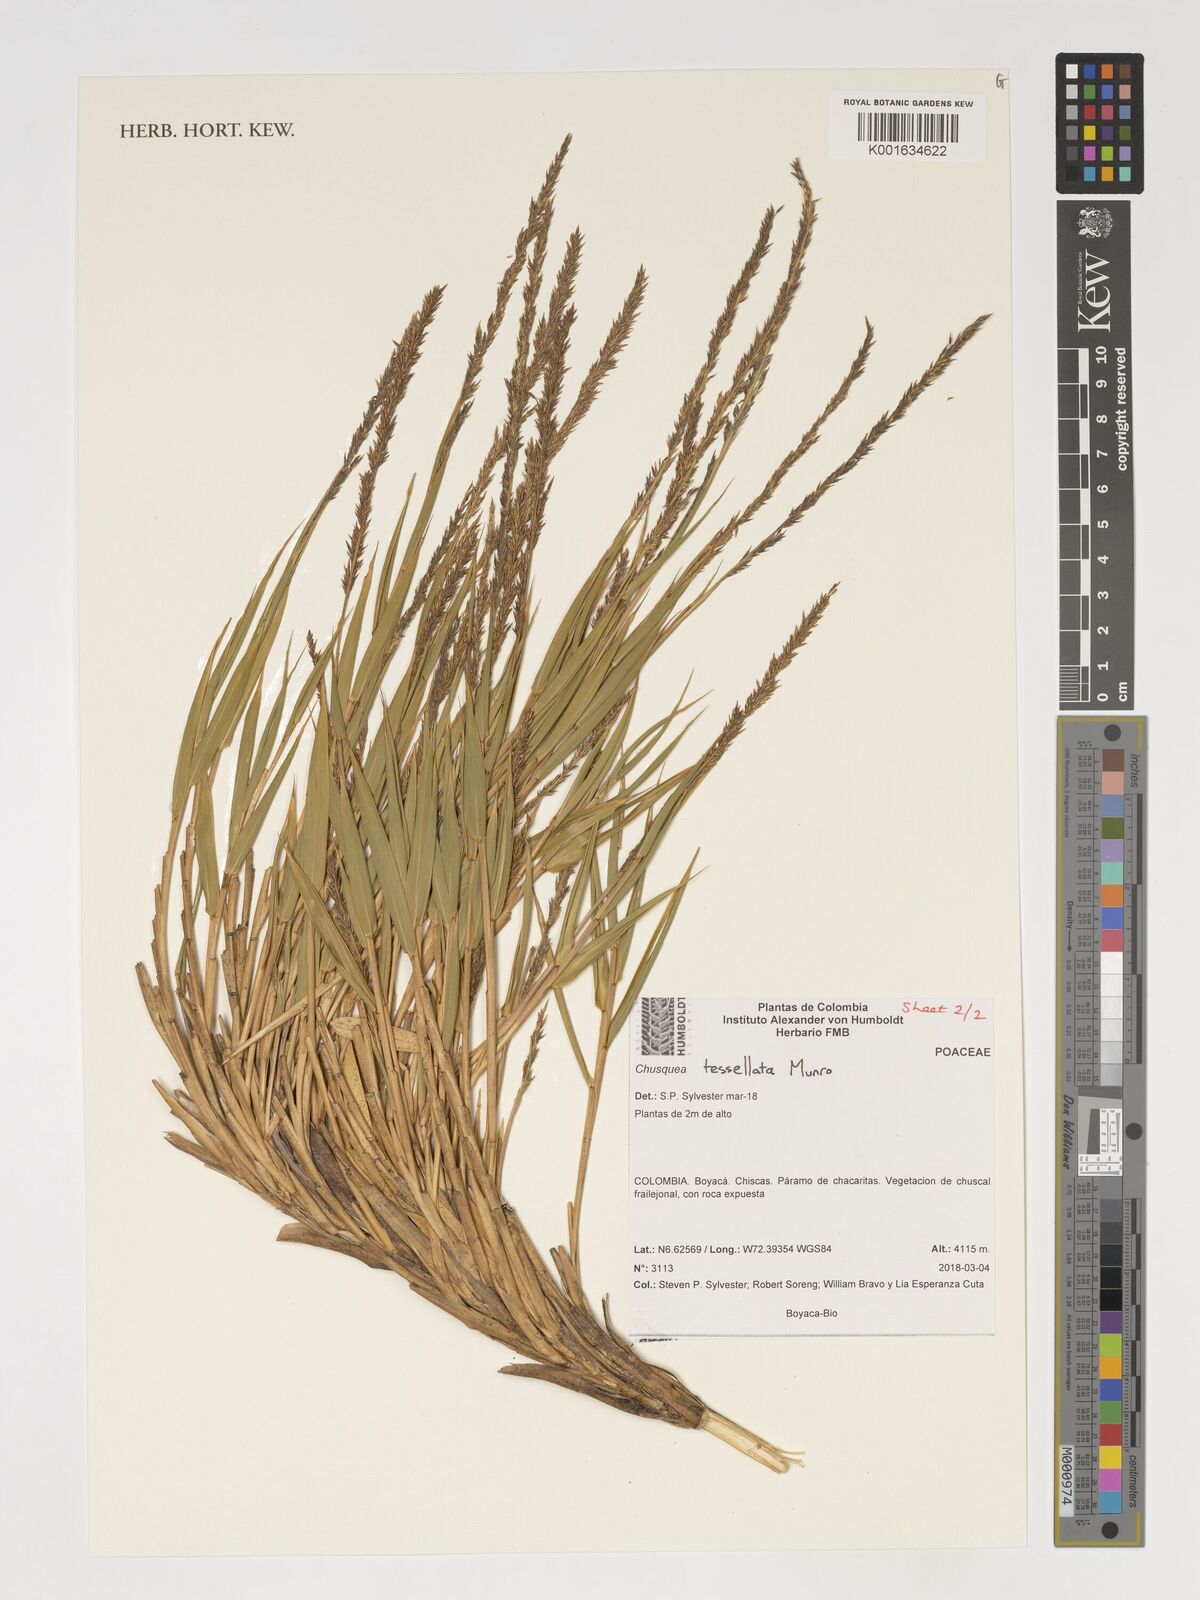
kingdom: Plantae
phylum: Tracheophyta
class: Liliopsida
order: Poales
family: Poaceae
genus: Chusquea
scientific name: Chusquea tessellata
